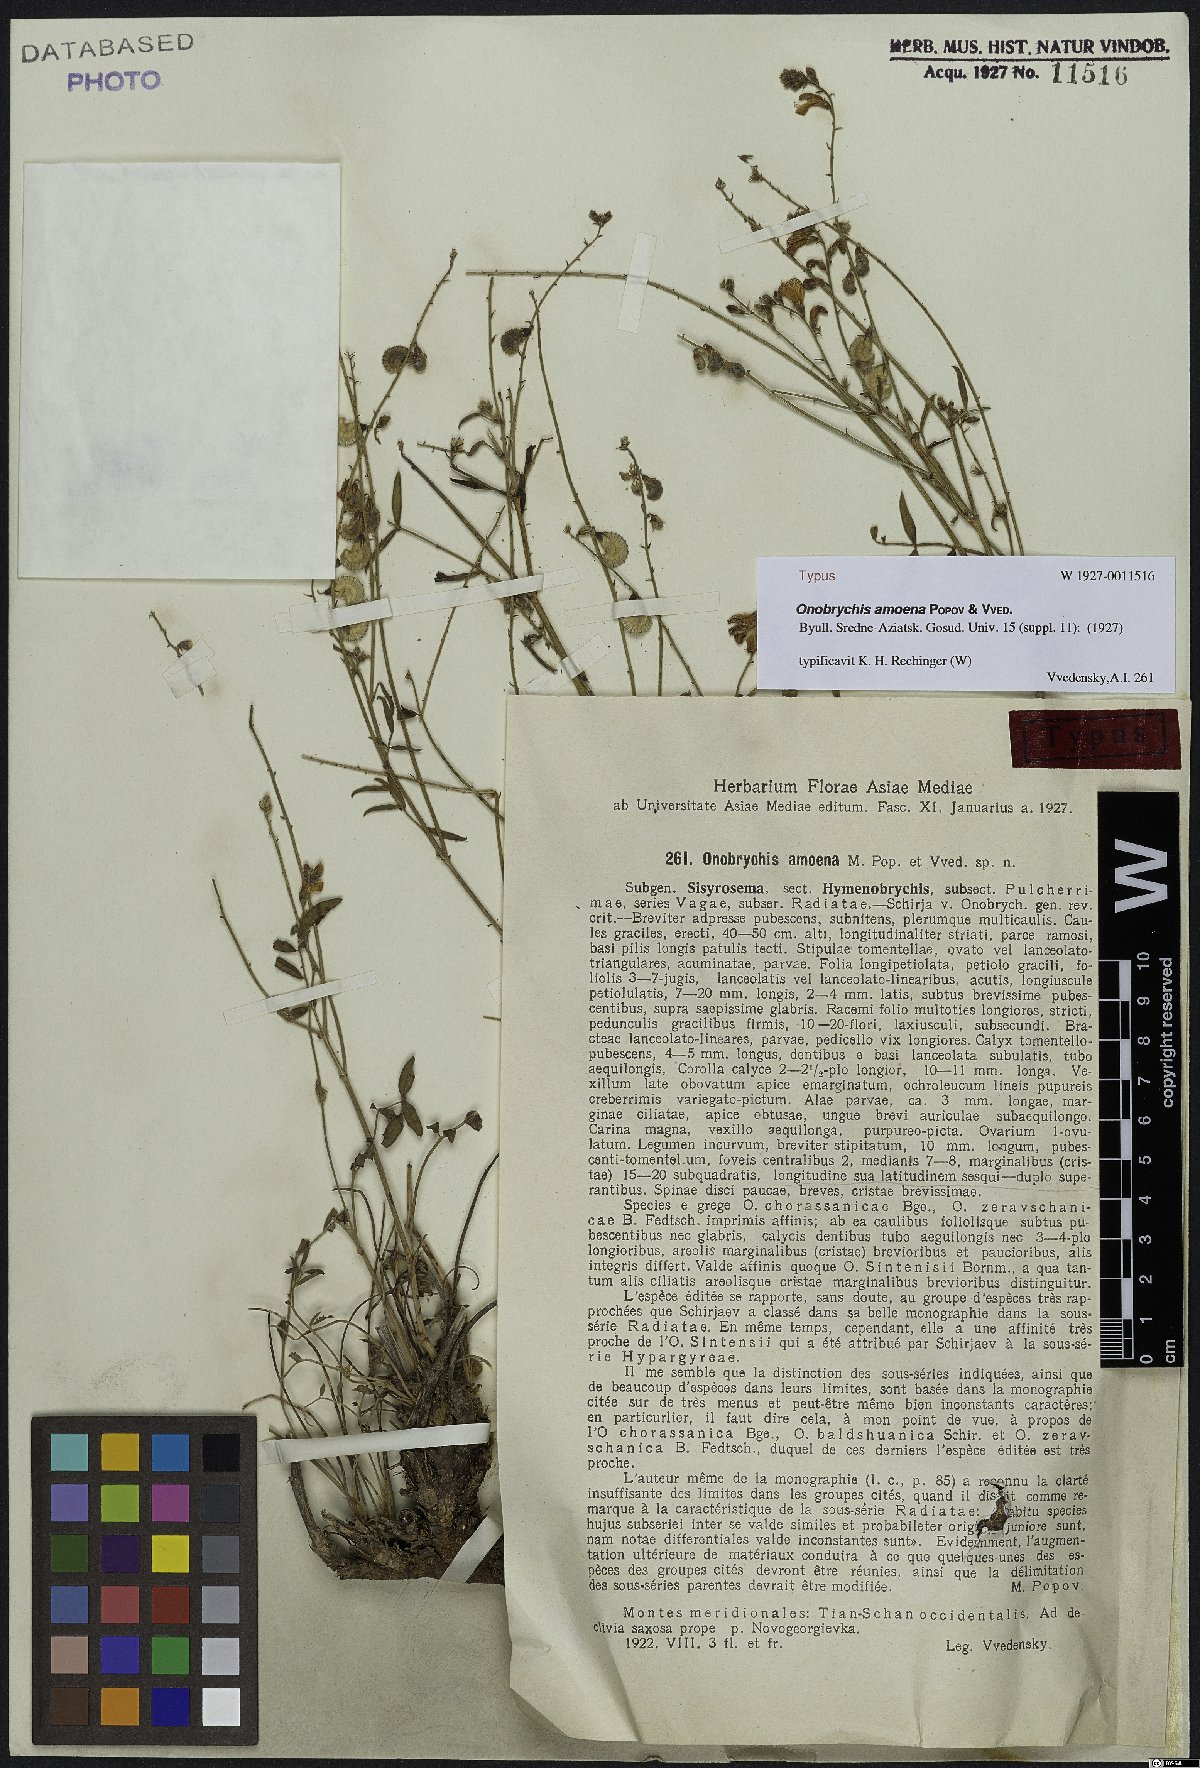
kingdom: Plantae
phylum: Tracheophyta
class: Magnoliopsida
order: Fabales
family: Fabaceae
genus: Onobrychis
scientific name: Onobrychis amoena
